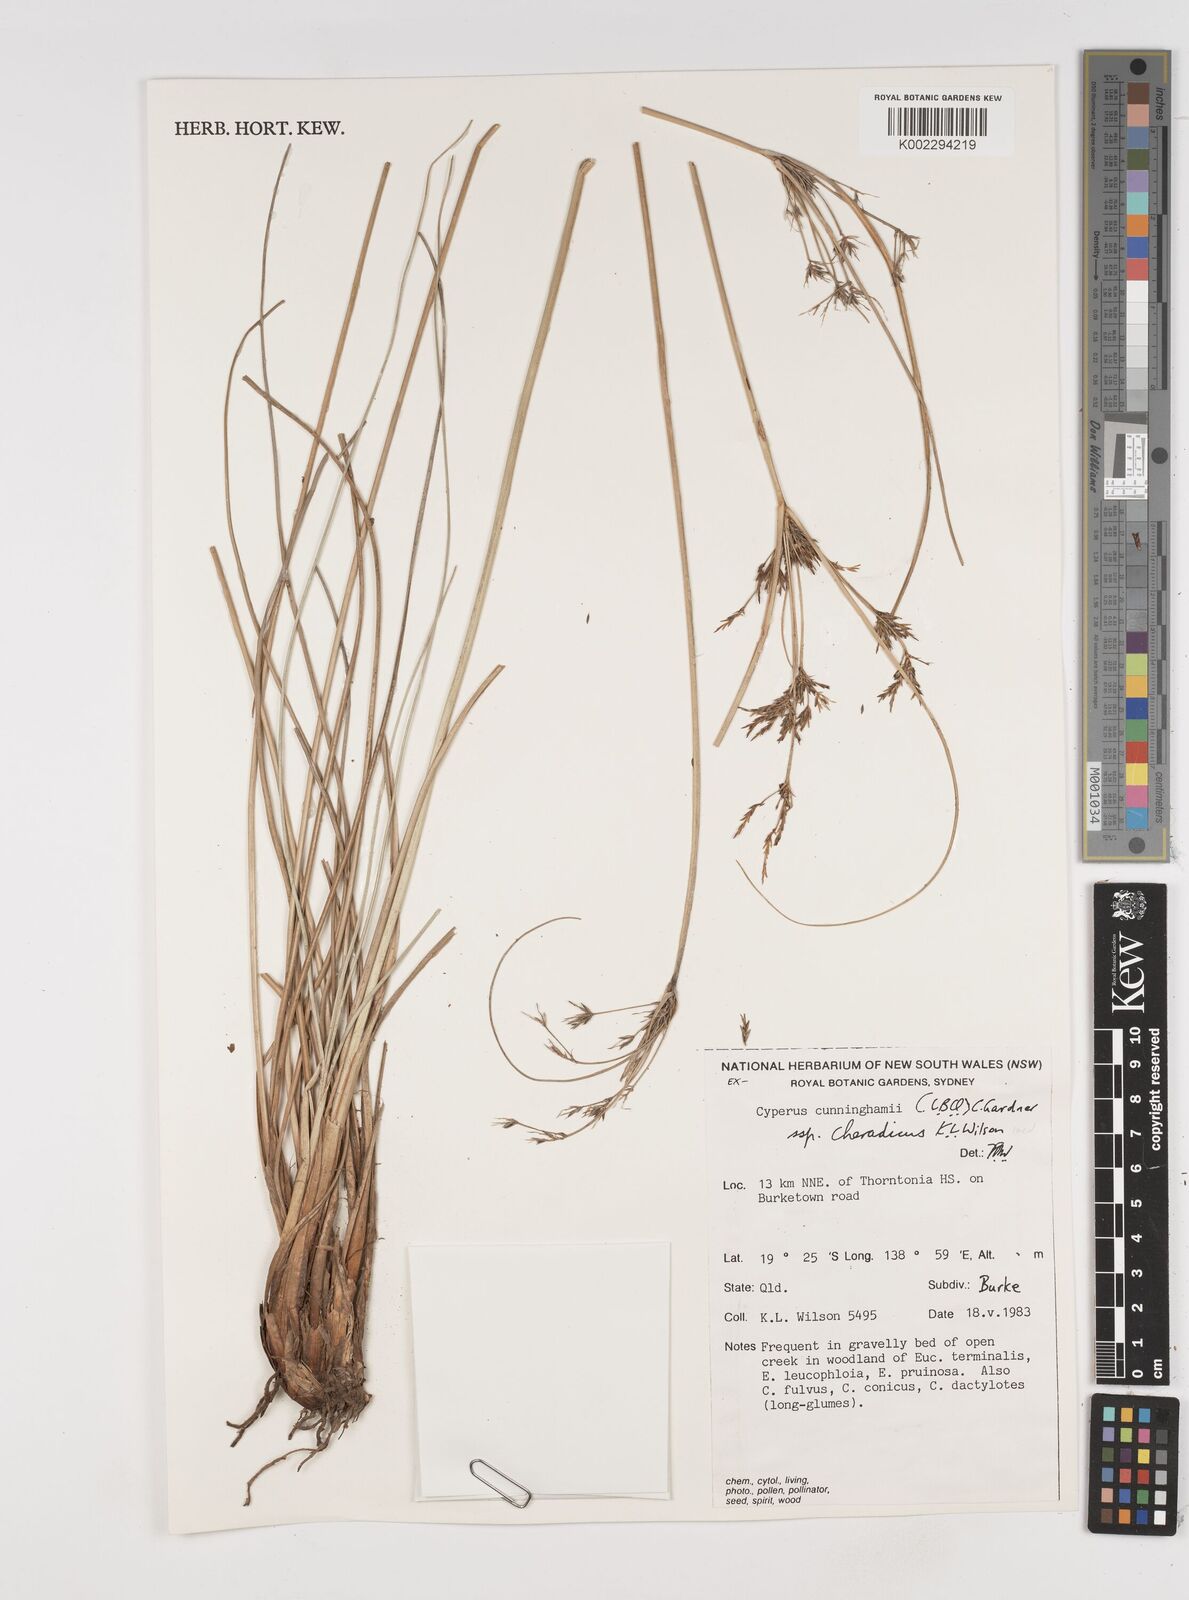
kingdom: Plantae
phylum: Tracheophyta
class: Liliopsida
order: Poales
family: Cyperaceae
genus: Cyperus
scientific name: Cyperus cunninghamii
